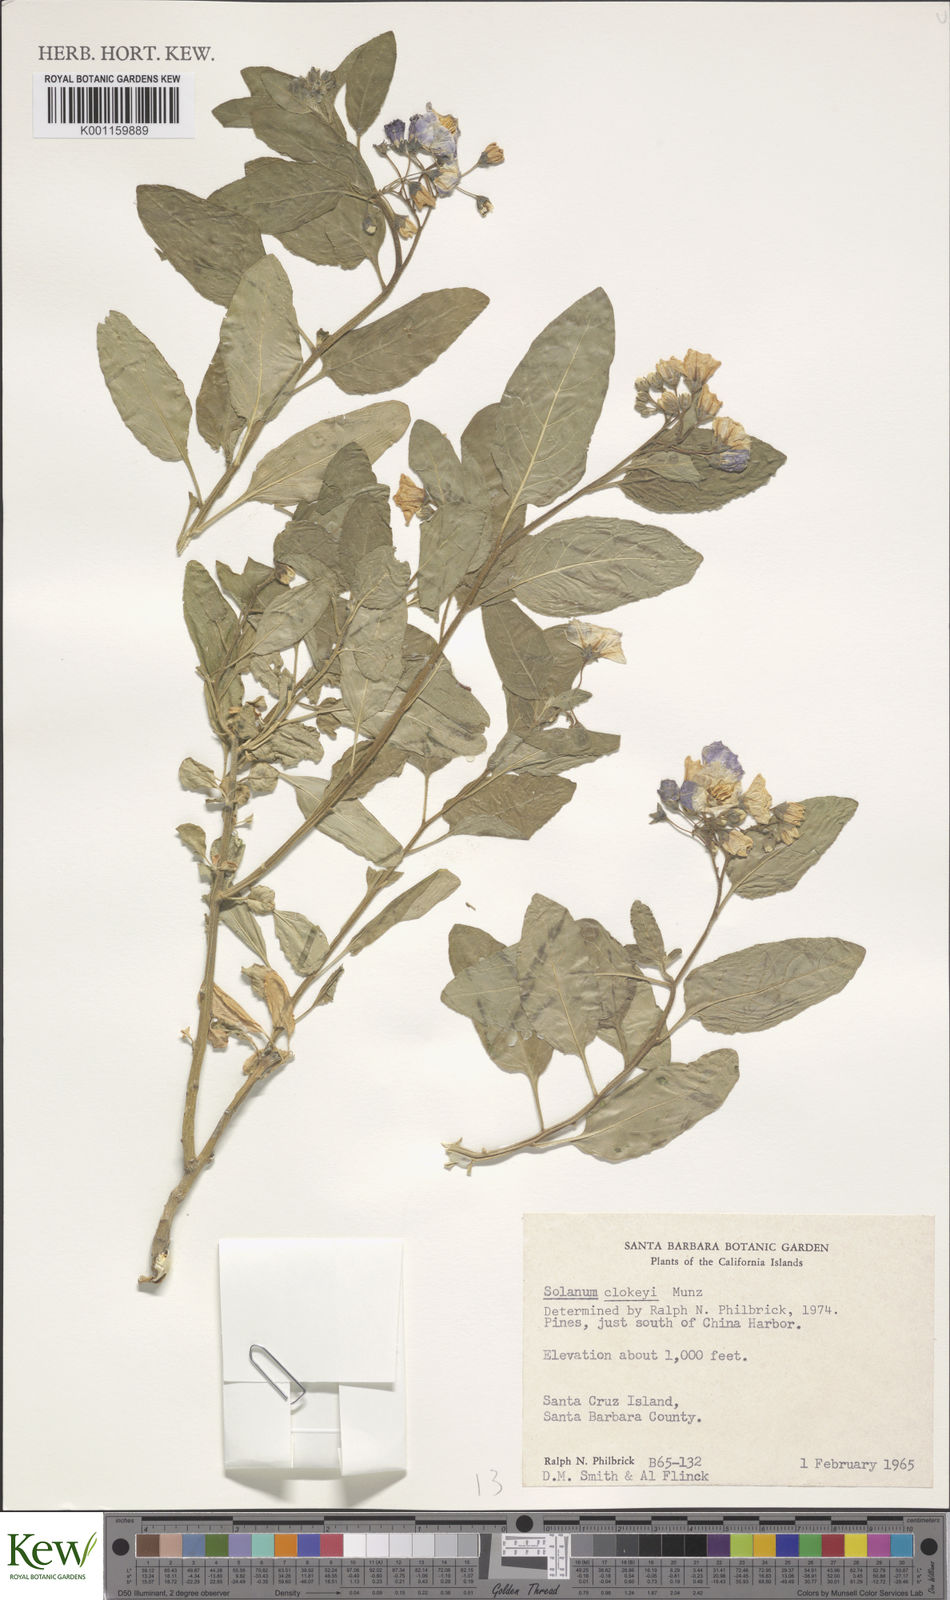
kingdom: Plantae
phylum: Tracheophyta
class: Magnoliopsida
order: Solanales
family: Solanaceae
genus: Solanum
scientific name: Solanum umbelliferum
